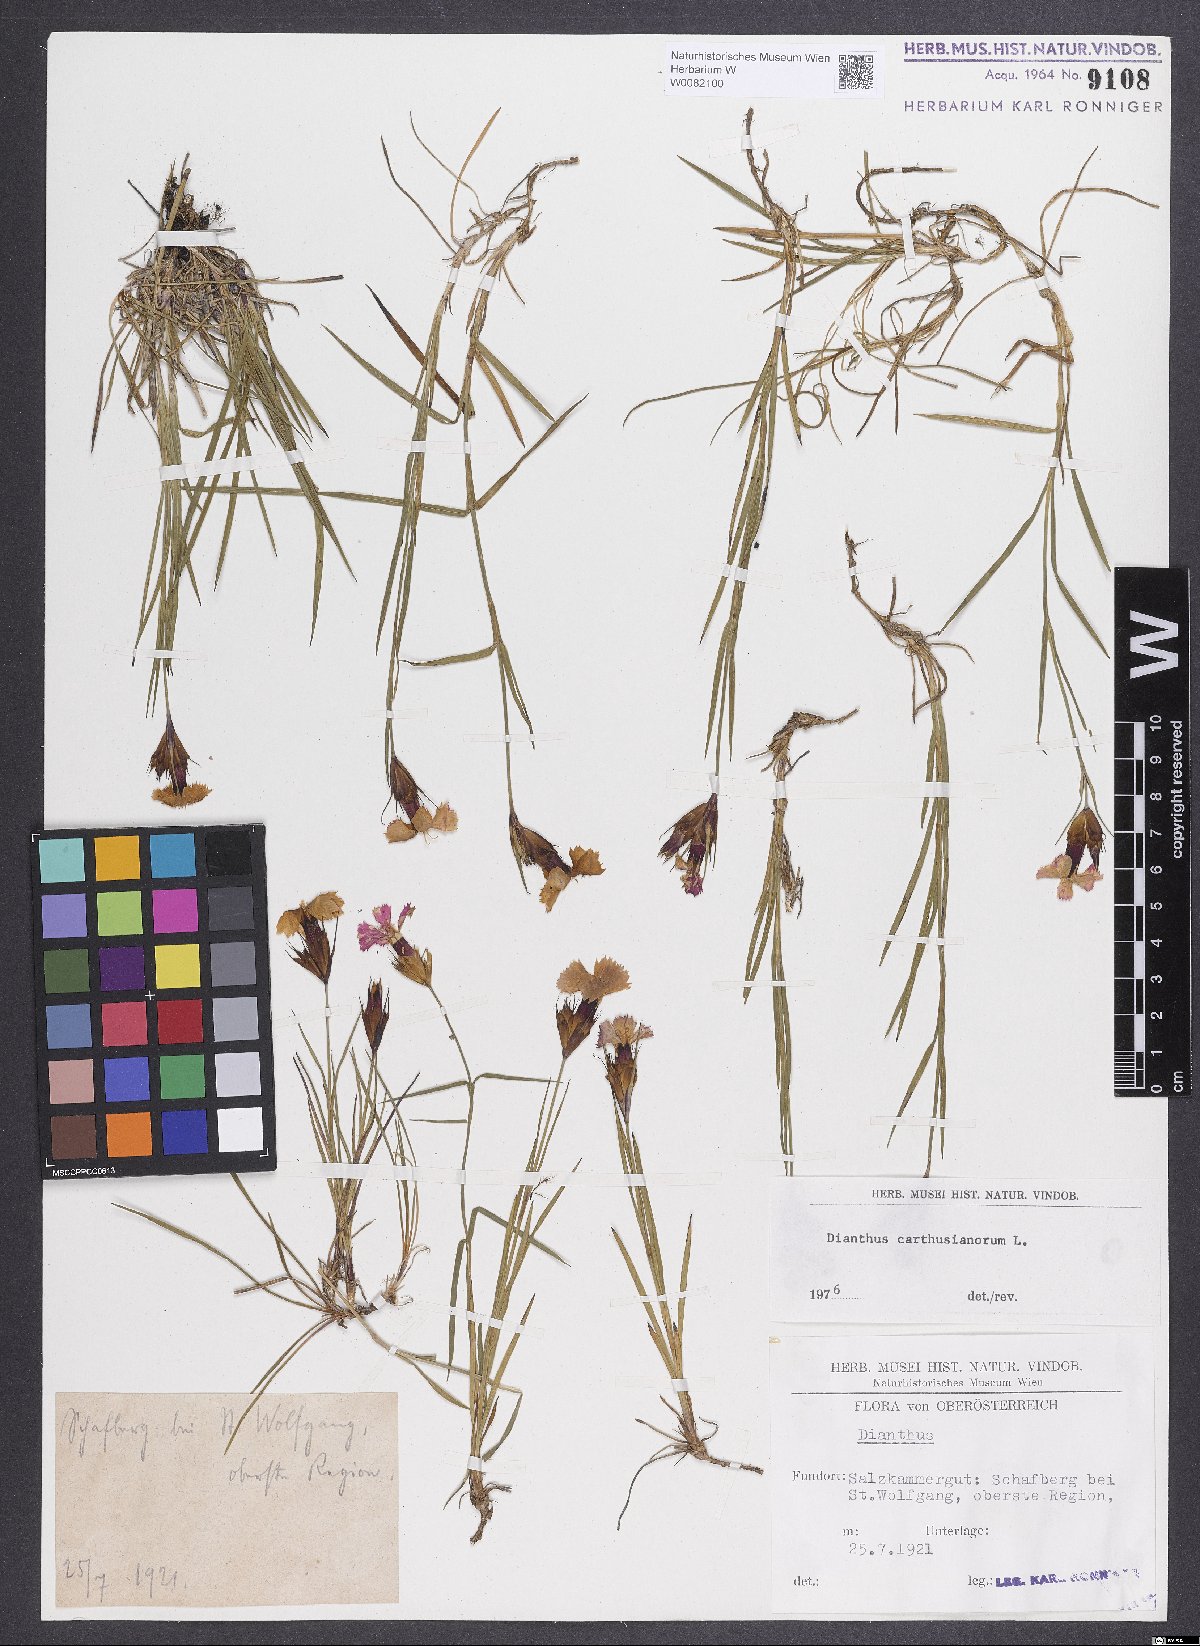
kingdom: Plantae
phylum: Tracheophyta
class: Magnoliopsida
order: Caryophyllales
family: Caryophyllaceae
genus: Dianthus
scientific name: Dianthus carthusianorum
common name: Carthusian pink
